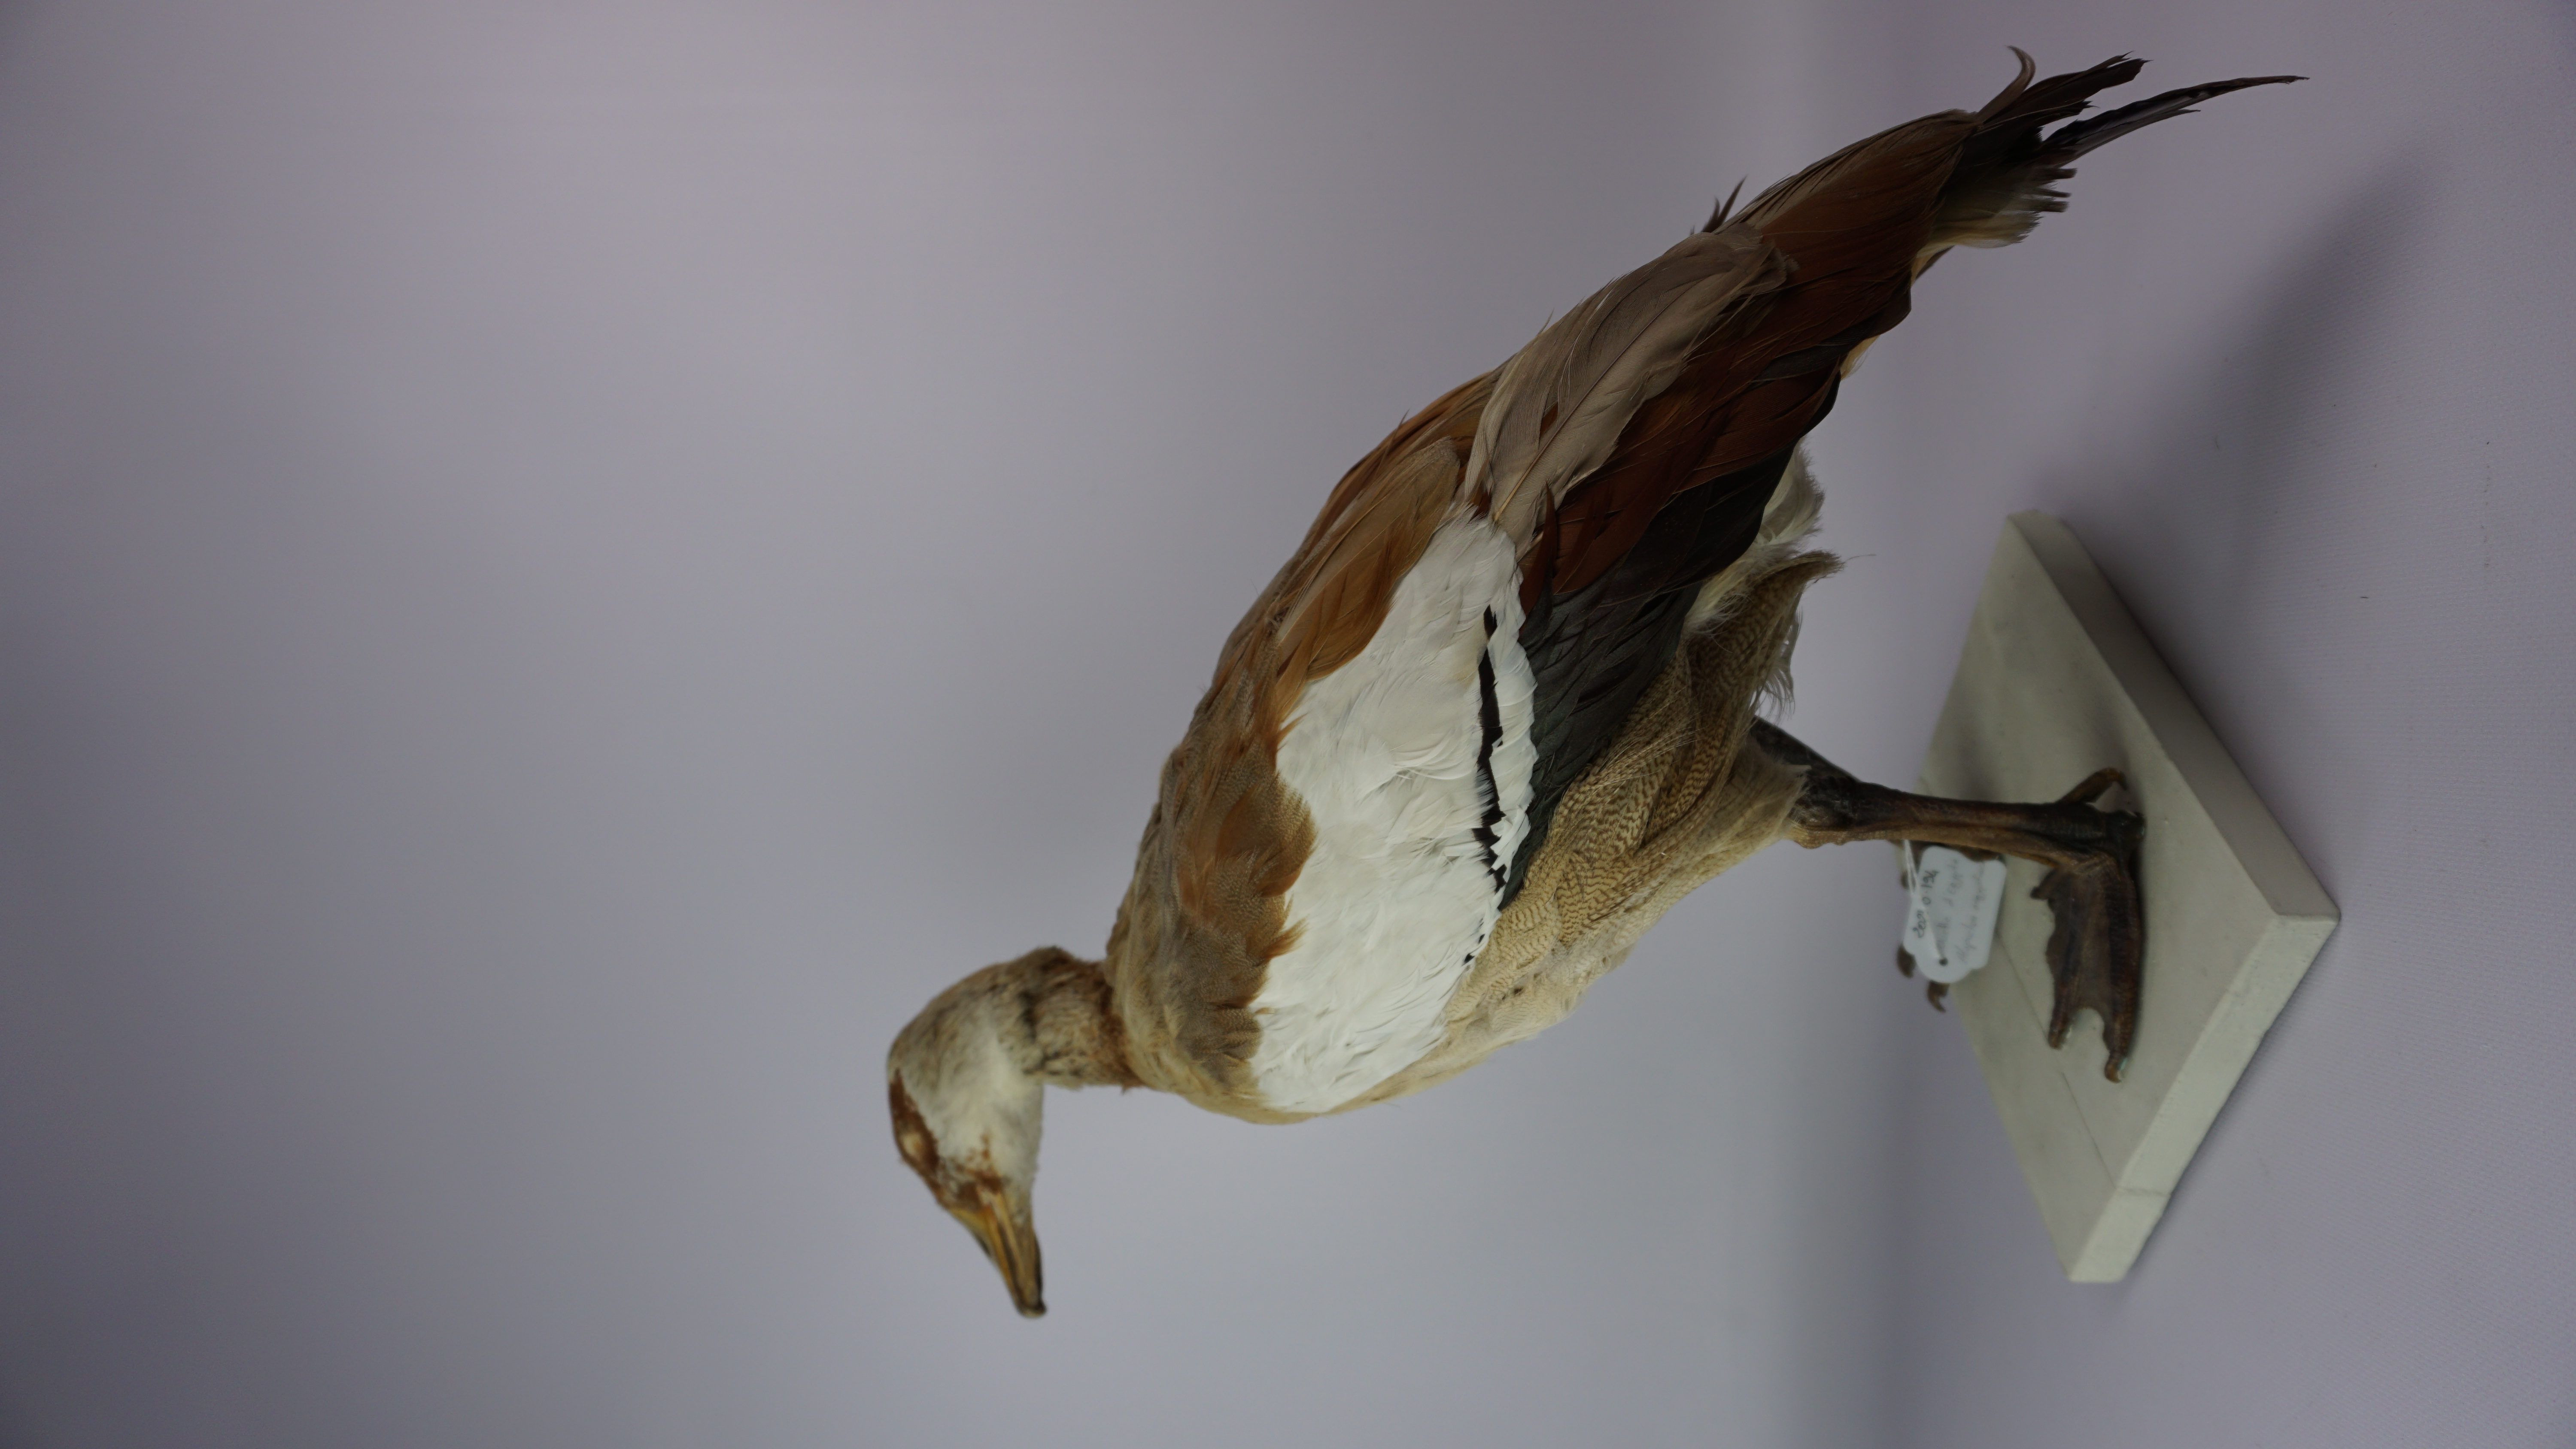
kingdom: Animalia
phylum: Chordata
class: Aves
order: Anseriformes
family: Anatidae
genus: Alopochen
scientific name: Alopochen aegyptiaca
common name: Egyptian goose
